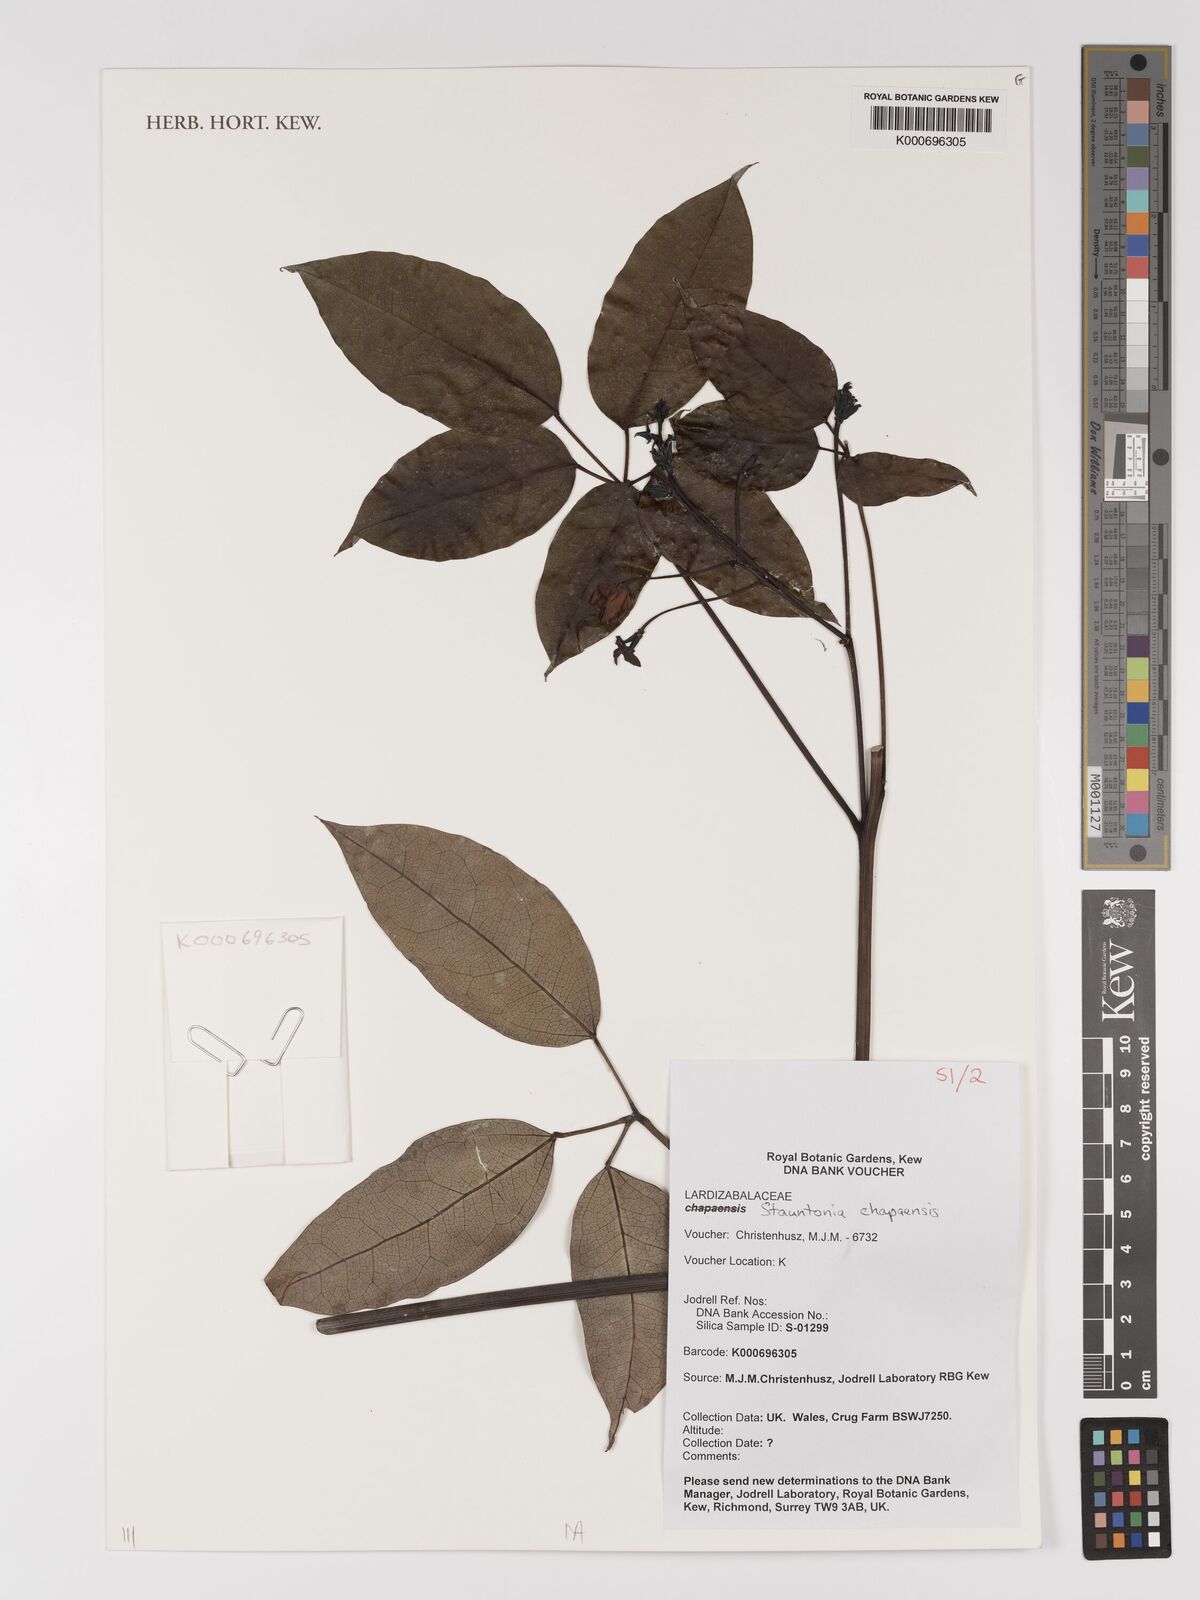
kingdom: Plantae
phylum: Tracheophyta
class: Magnoliopsida
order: Ranunculales
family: Lardizabalaceae
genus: Stauntonia
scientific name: Stauntonia chapaensis
